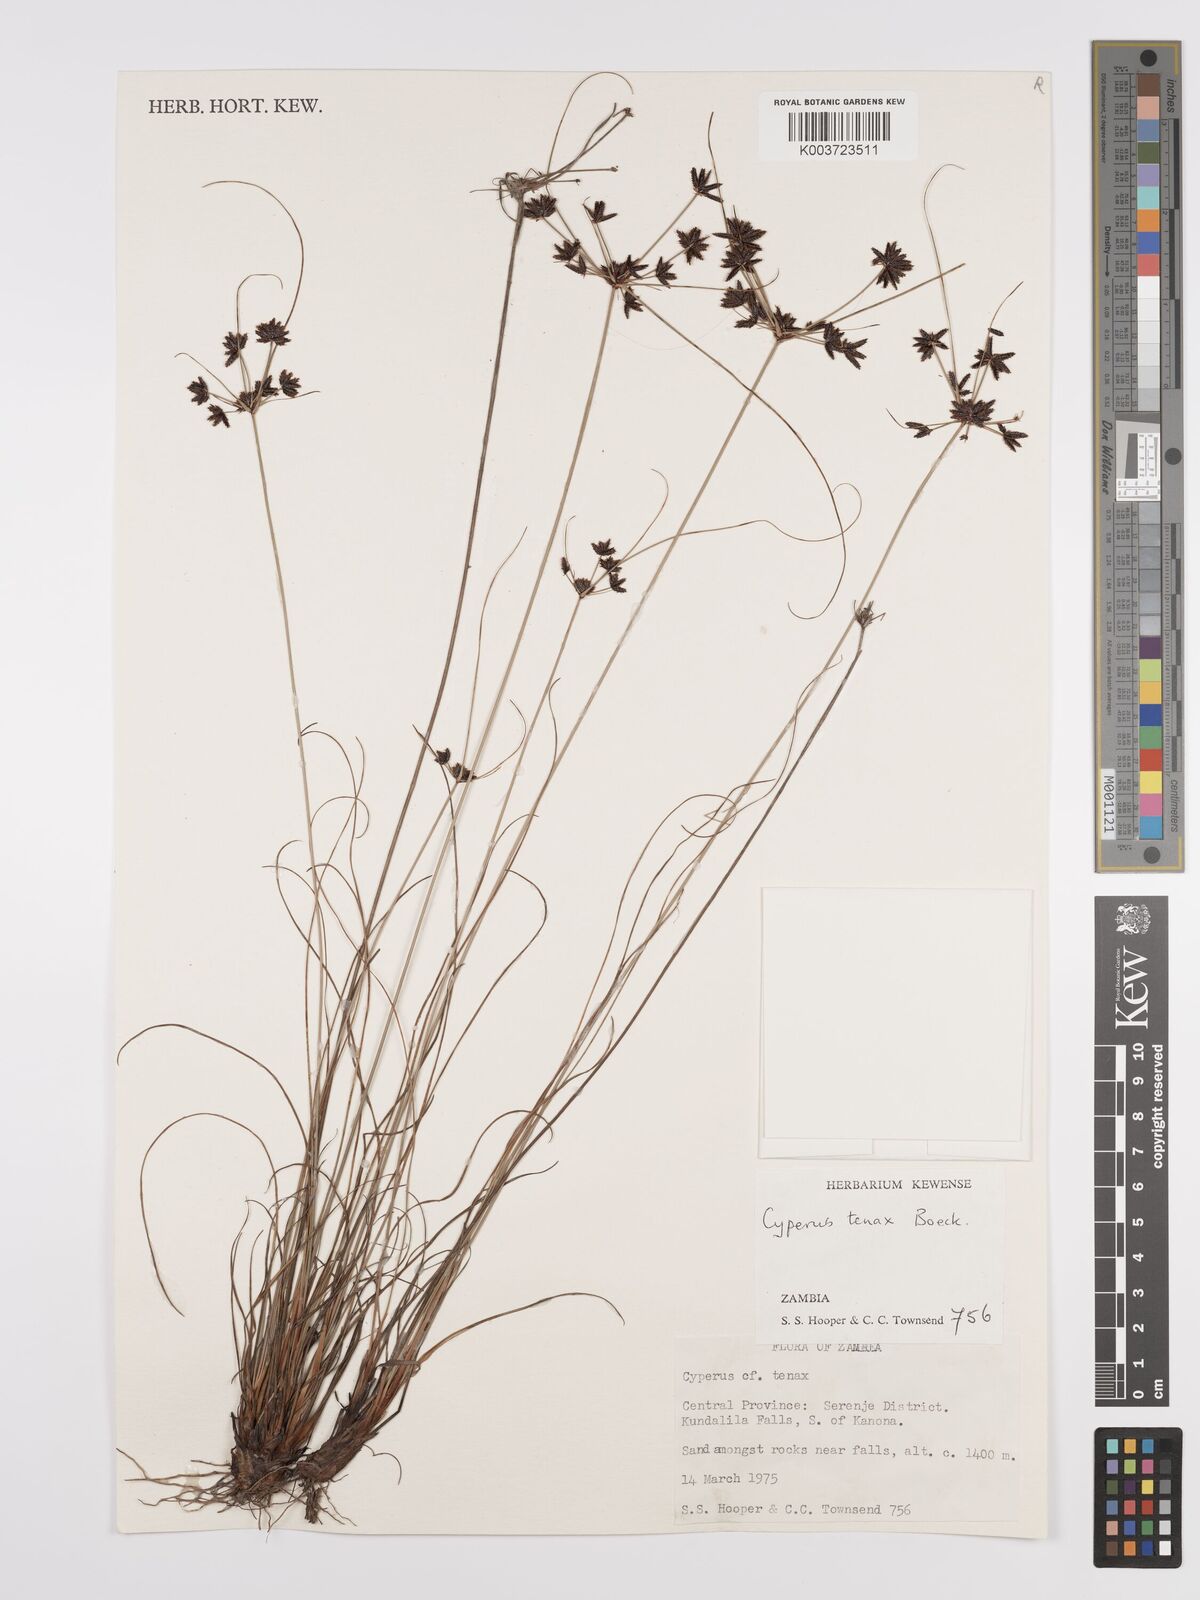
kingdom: Plantae
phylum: Tracheophyta
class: Liliopsida
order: Poales
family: Cyperaceae
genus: Cyperus
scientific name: Cyperus tenax
